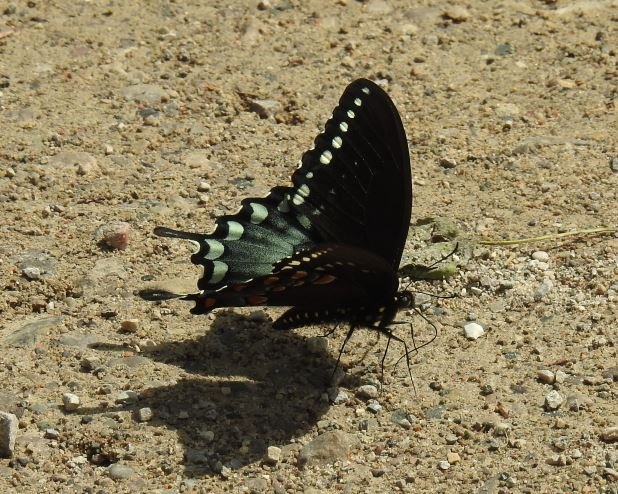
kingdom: Animalia
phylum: Arthropoda
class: Insecta
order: Lepidoptera
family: Papilionidae
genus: Pterourus
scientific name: Pterourus troilus
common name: Spicebush Swallowtail
